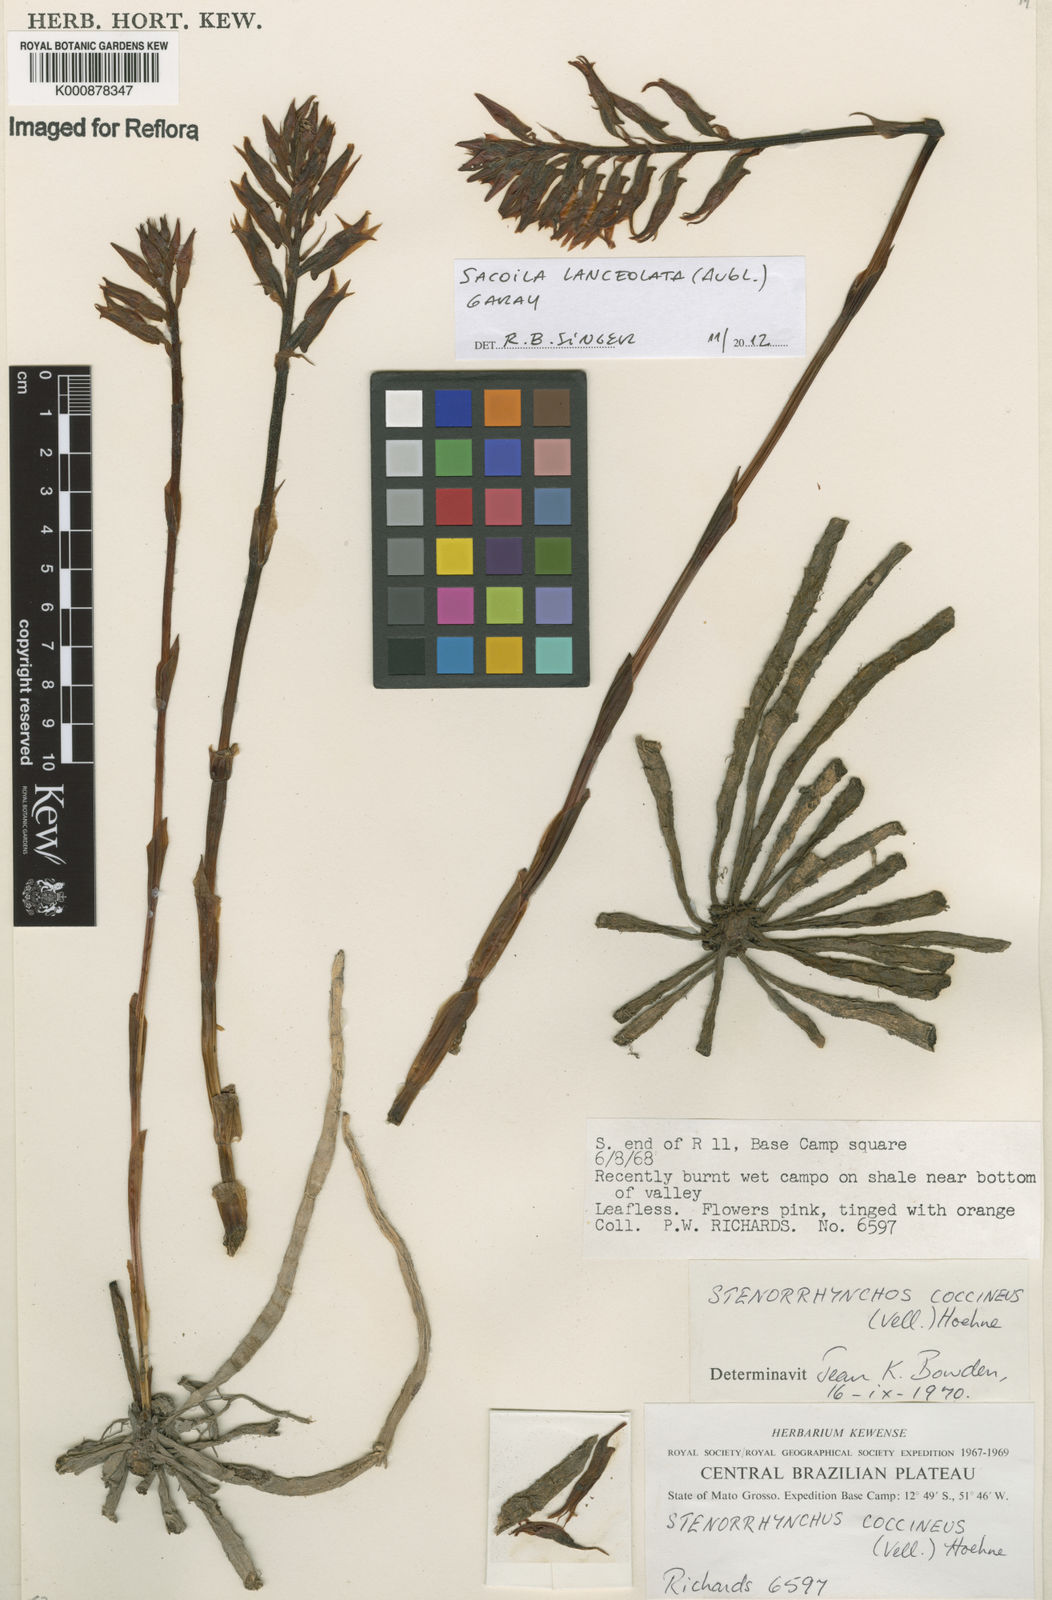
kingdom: Plantae
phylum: Tracheophyta
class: Liliopsida
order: Asparagales
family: Orchidaceae
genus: Sacoila
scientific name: Sacoila lanceolata
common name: Leafless beaked ladiestresses
